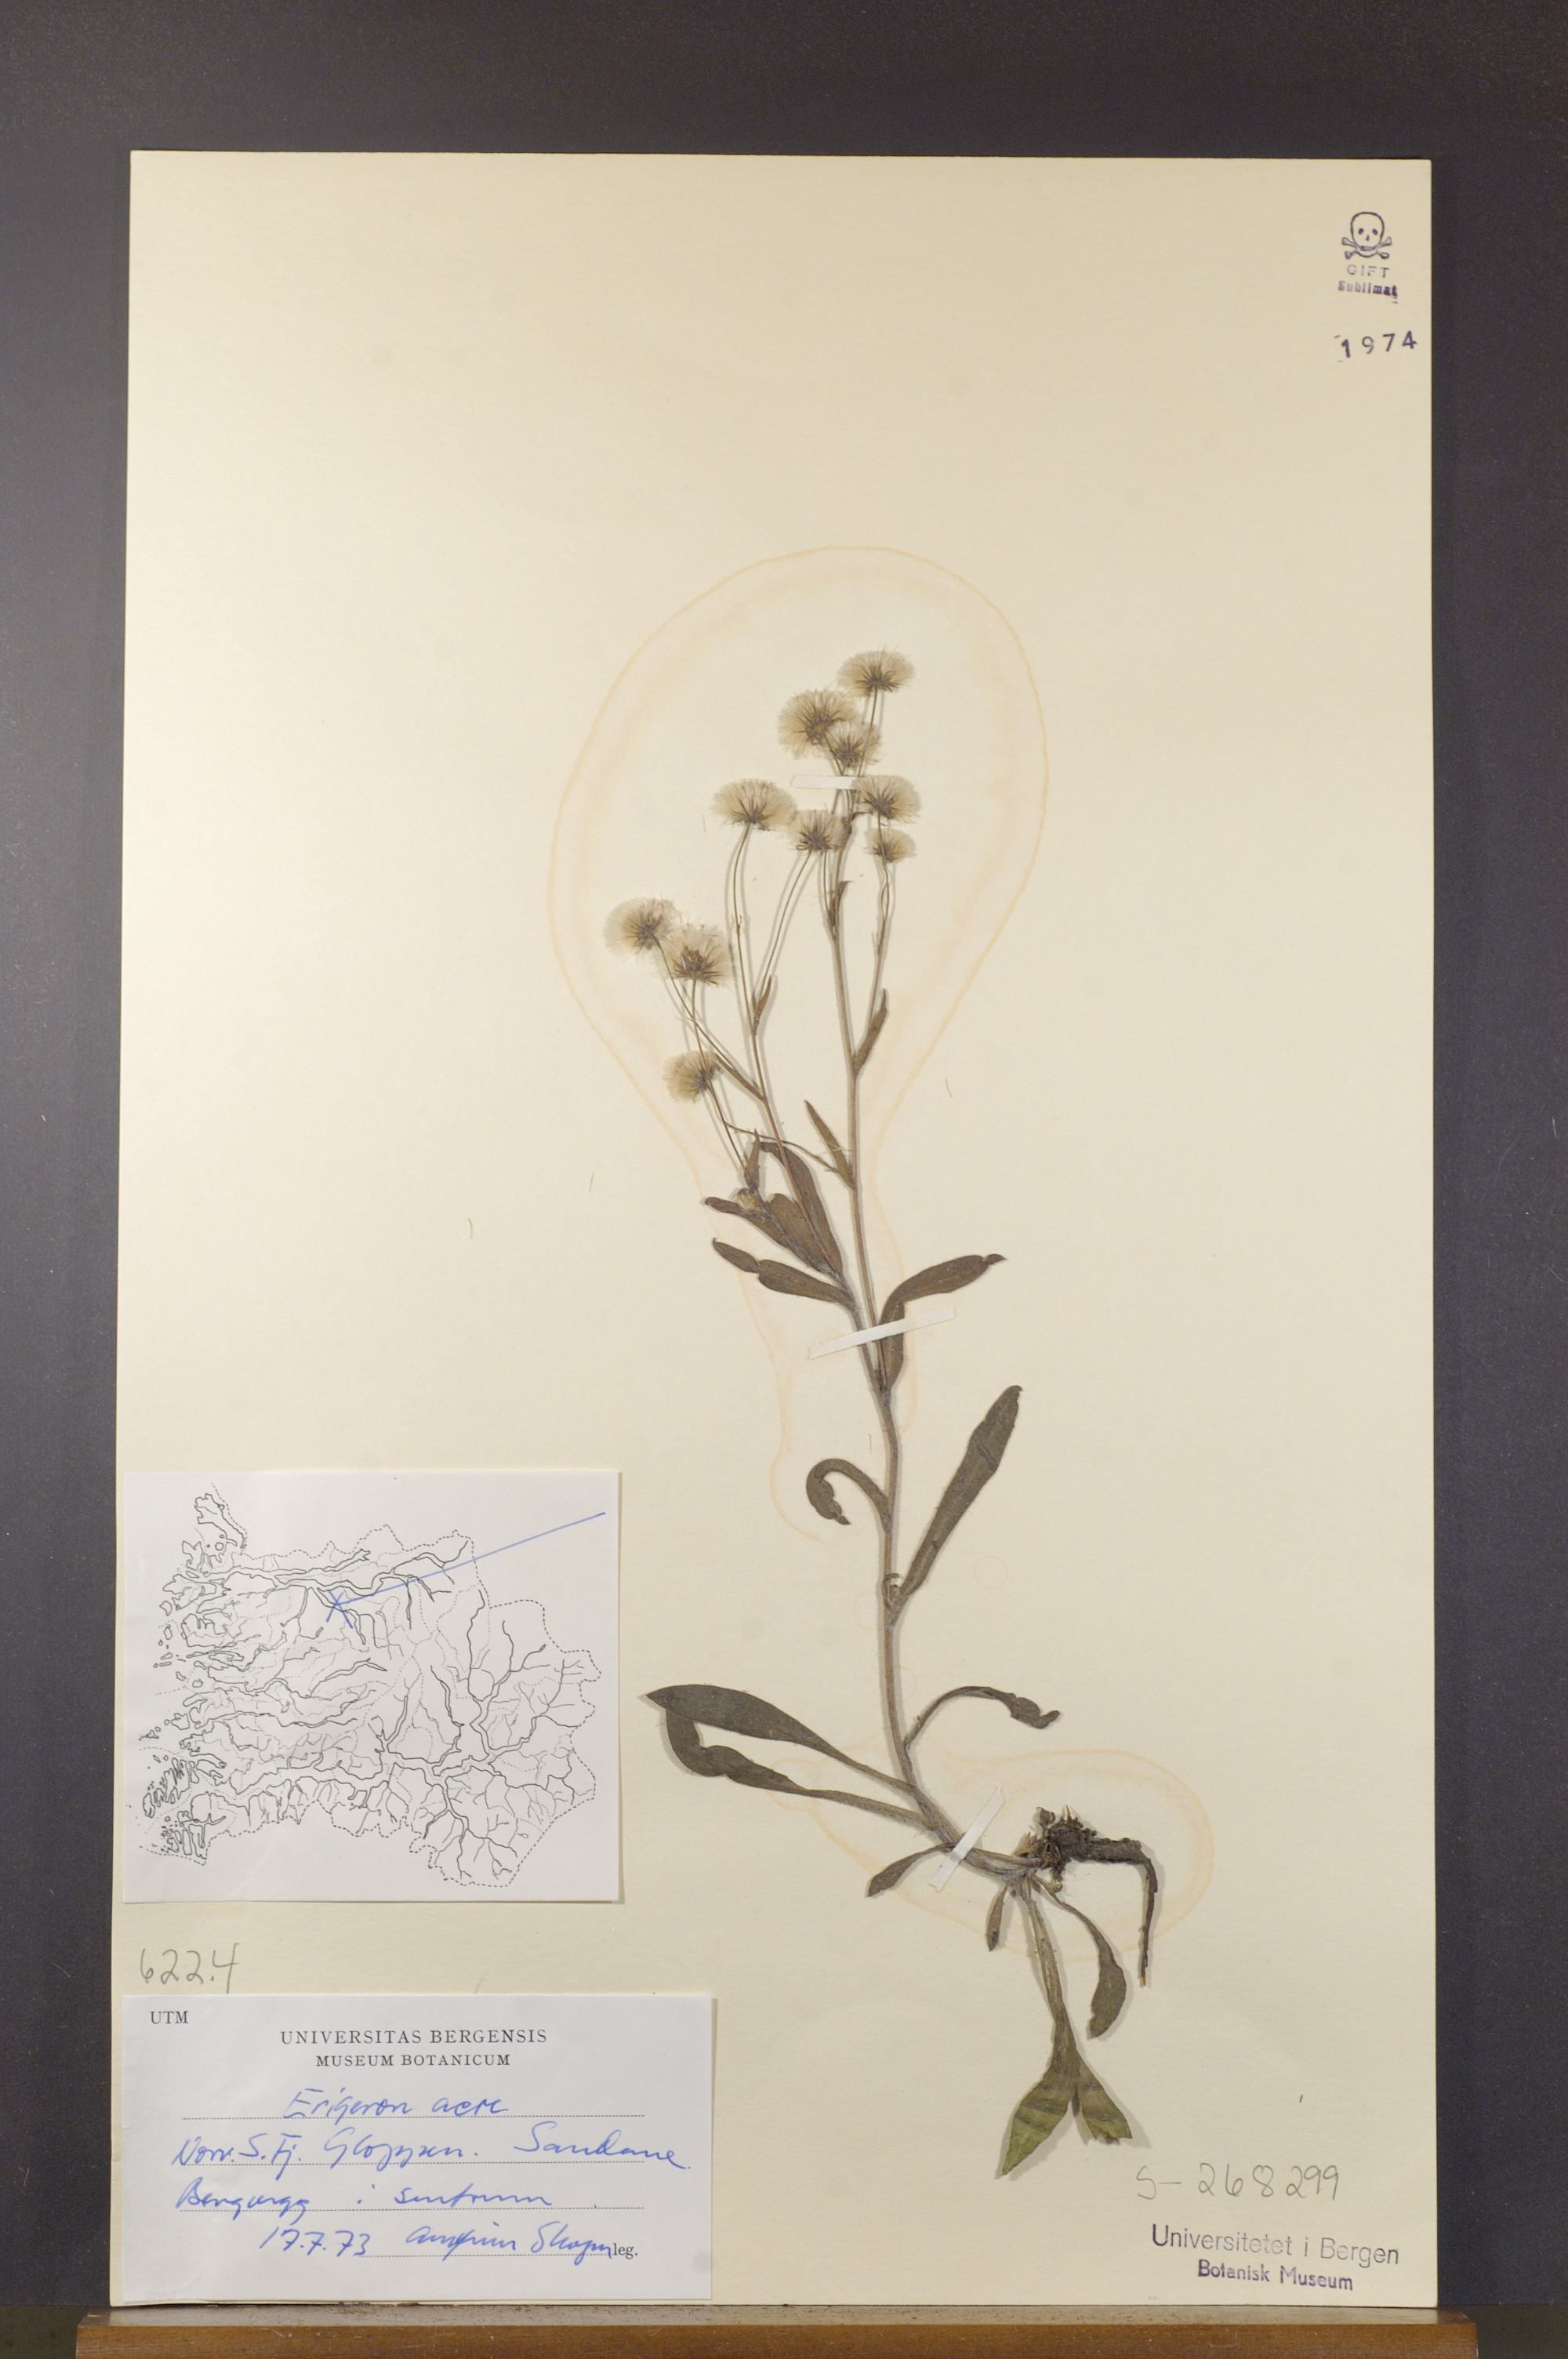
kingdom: Plantae
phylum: Tracheophyta
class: Magnoliopsida
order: Asterales
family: Asteraceae
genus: Erigeron
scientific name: Erigeron acris
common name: Blue fleabane
